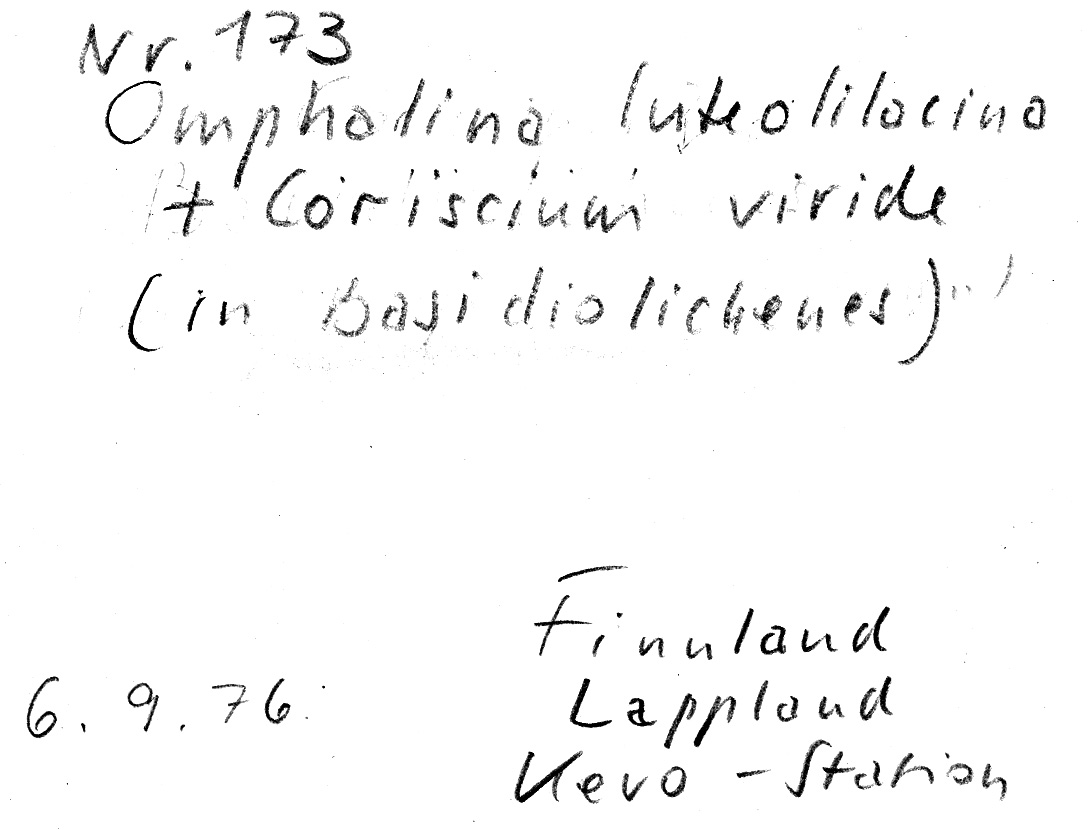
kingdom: Fungi
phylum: Basidiomycota
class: Agaricomycetes
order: Agaricales
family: Hygrophoraceae
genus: Lichenomphalia
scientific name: Lichenomphalia hudsoniana
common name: Arctic mushroom scales lichen
